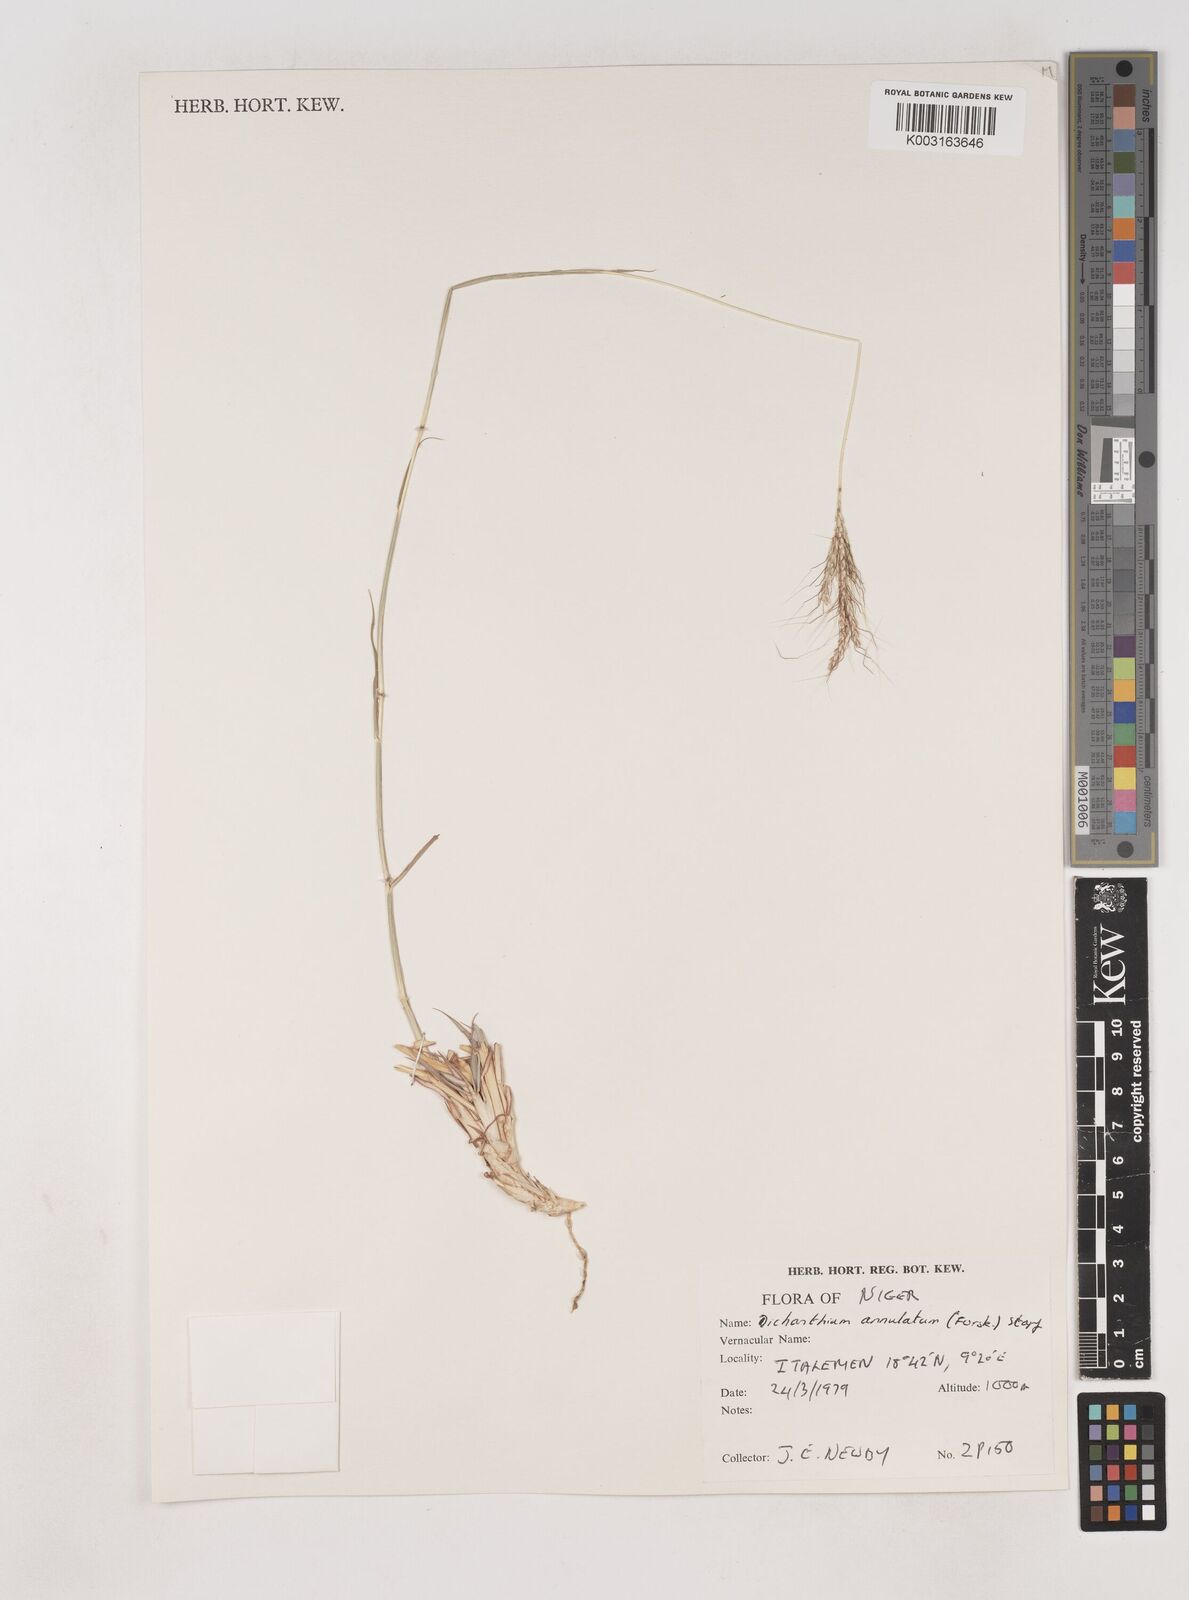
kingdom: Plantae
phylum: Tracheophyta
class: Liliopsida
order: Poales
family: Poaceae
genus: Dichanthium
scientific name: Dichanthium annulatum
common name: Kleberg's bluestem
